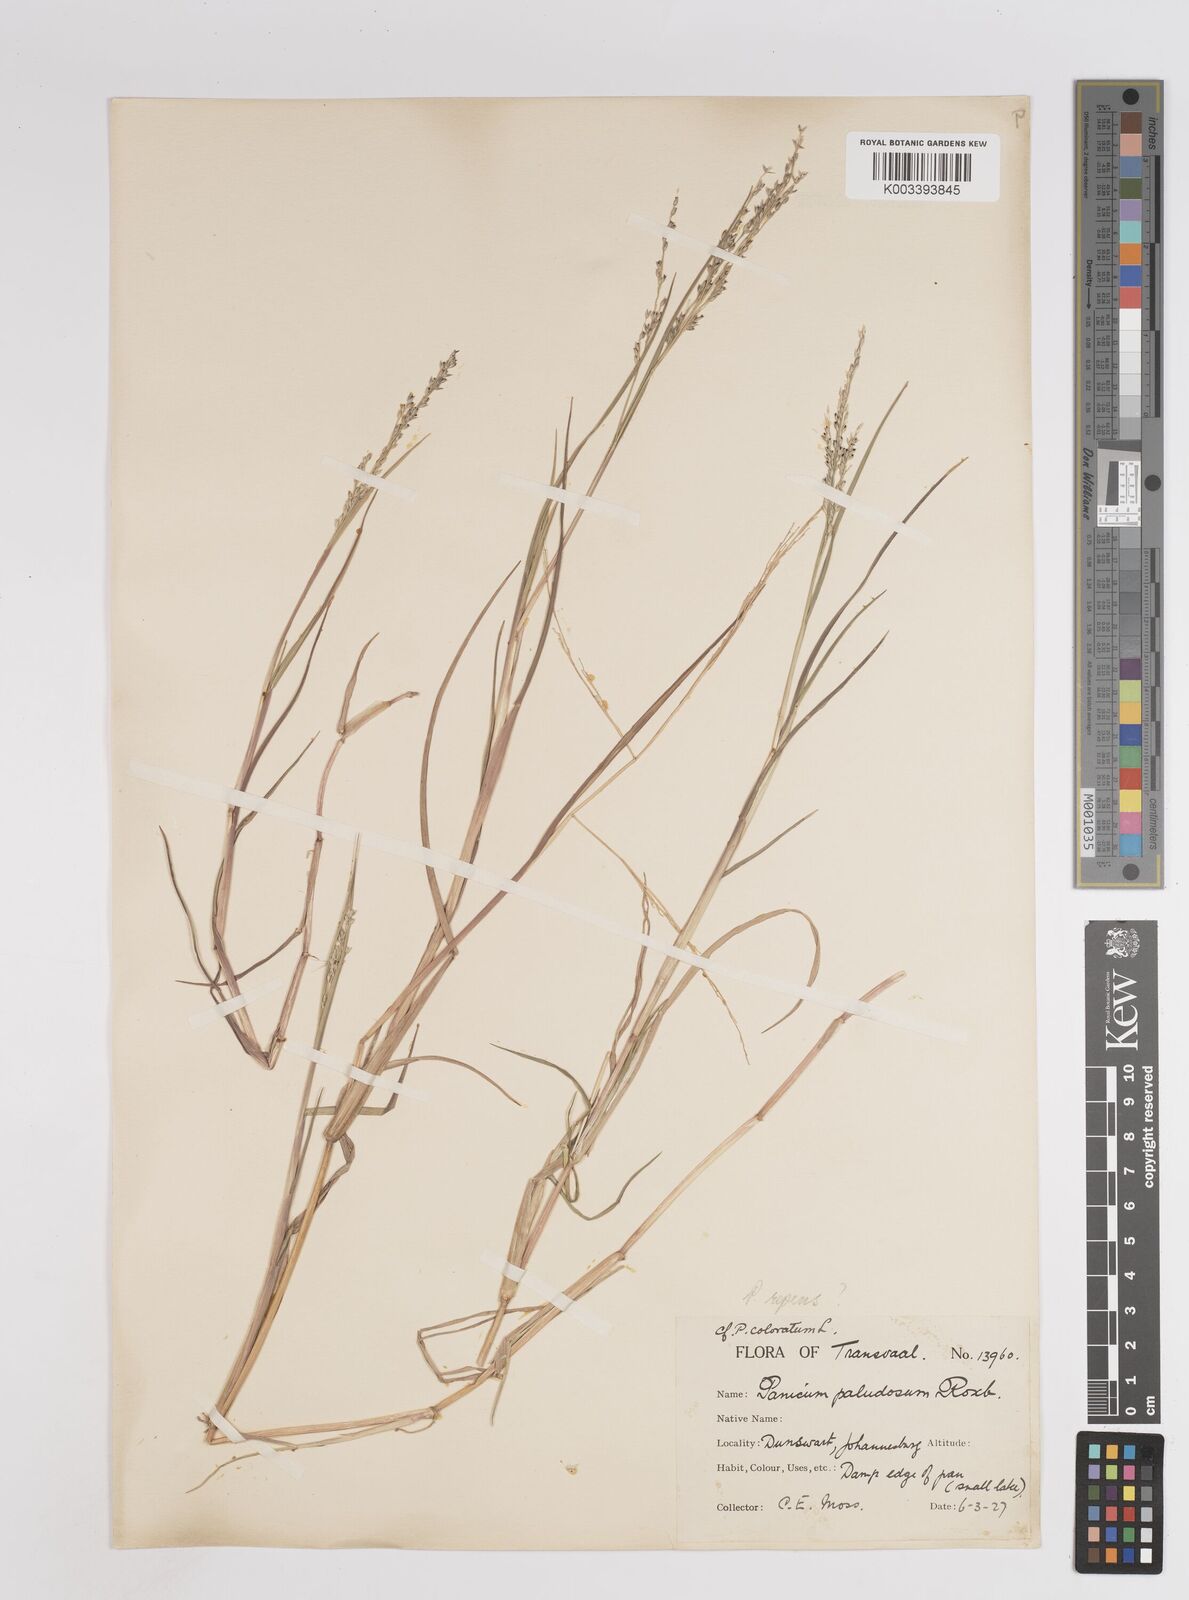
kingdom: Plantae
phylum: Tracheophyta
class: Liliopsida
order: Poales
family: Poaceae
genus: Panicum
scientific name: Panicum hygrocharis
